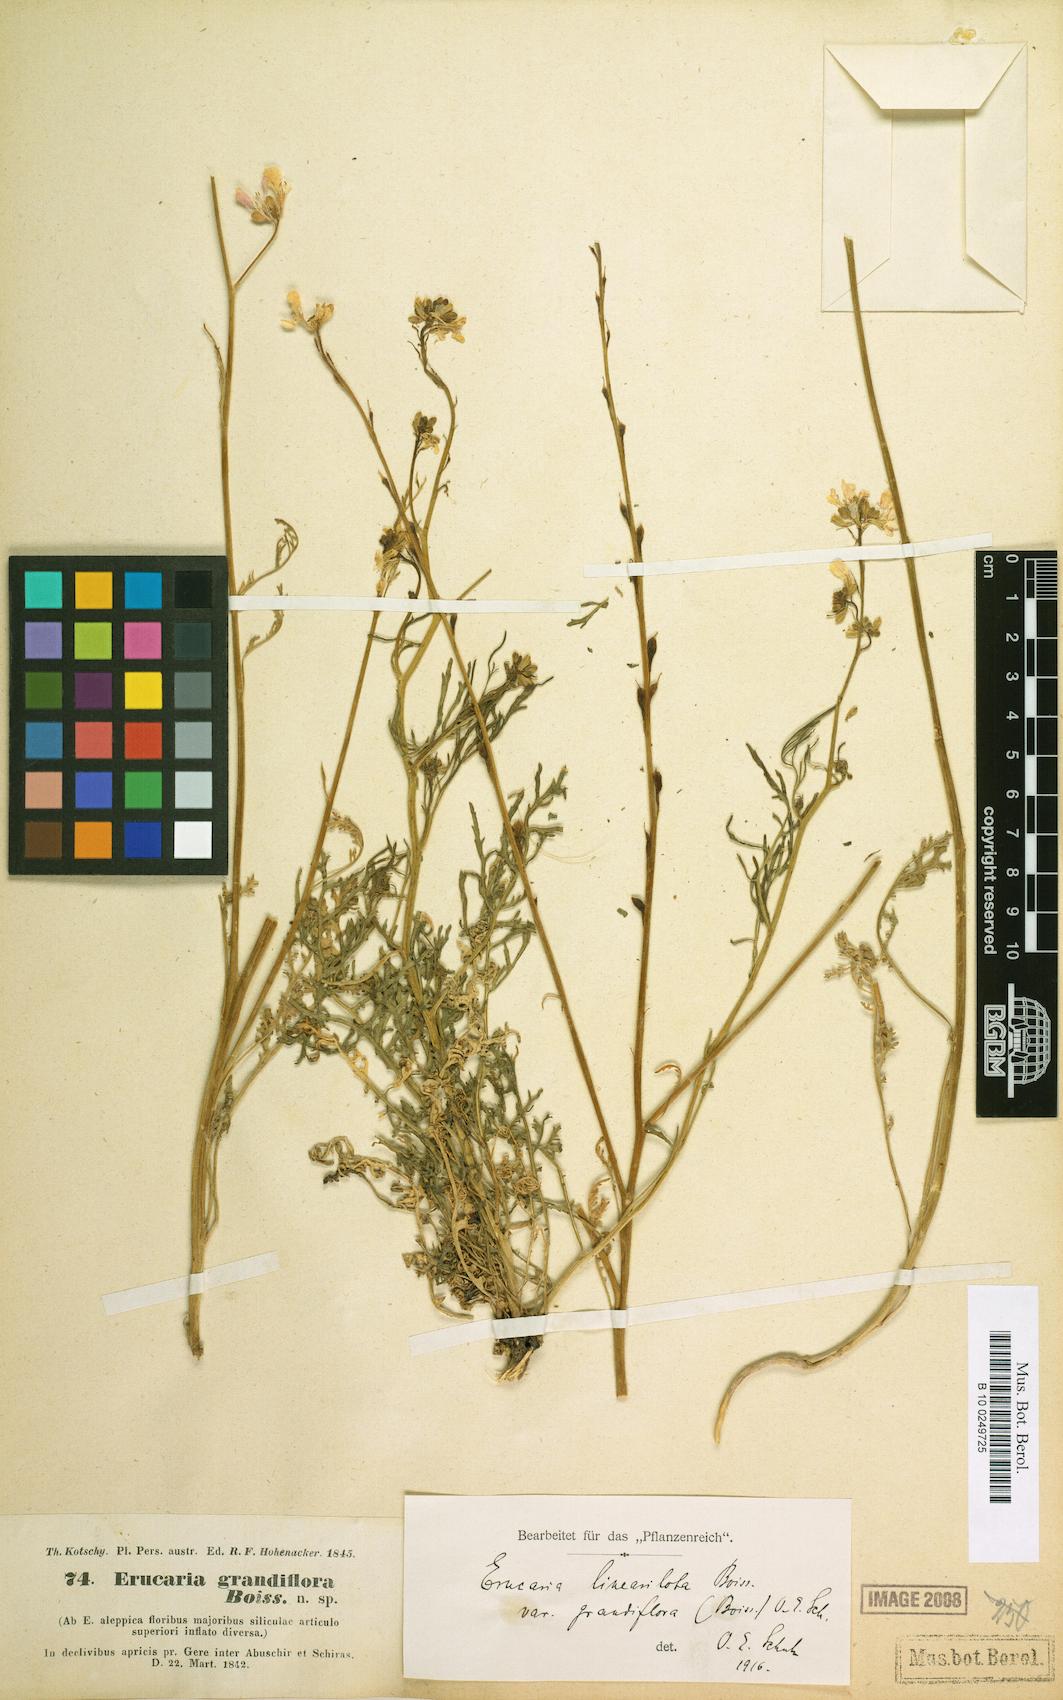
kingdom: Plantae
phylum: Tracheophyta
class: Magnoliopsida
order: Brassicales
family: Brassicaceae
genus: Erucaria
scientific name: Erucaria hispanica
